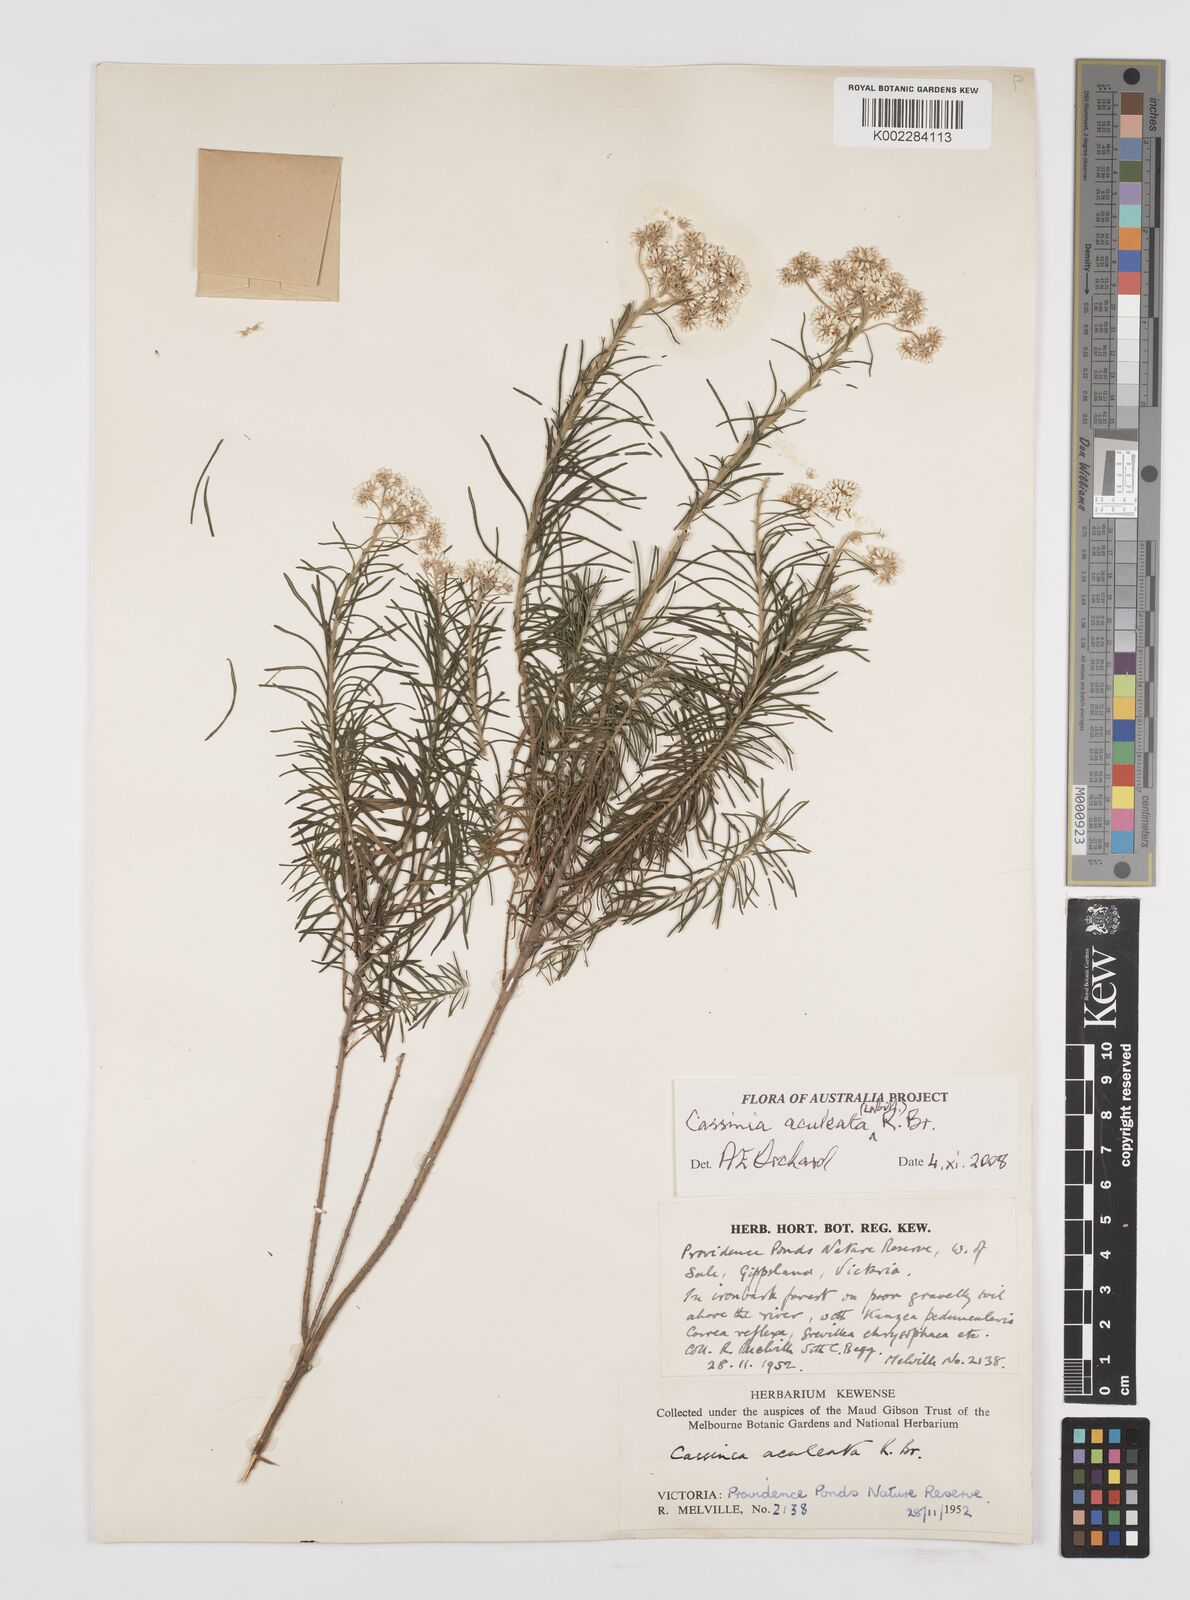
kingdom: Plantae
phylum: Tracheophyta
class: Magnoliopsida
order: Asterales
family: Asteraceae
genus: Cassinia
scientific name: Cassinia aculeata
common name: Australian tauhinu
